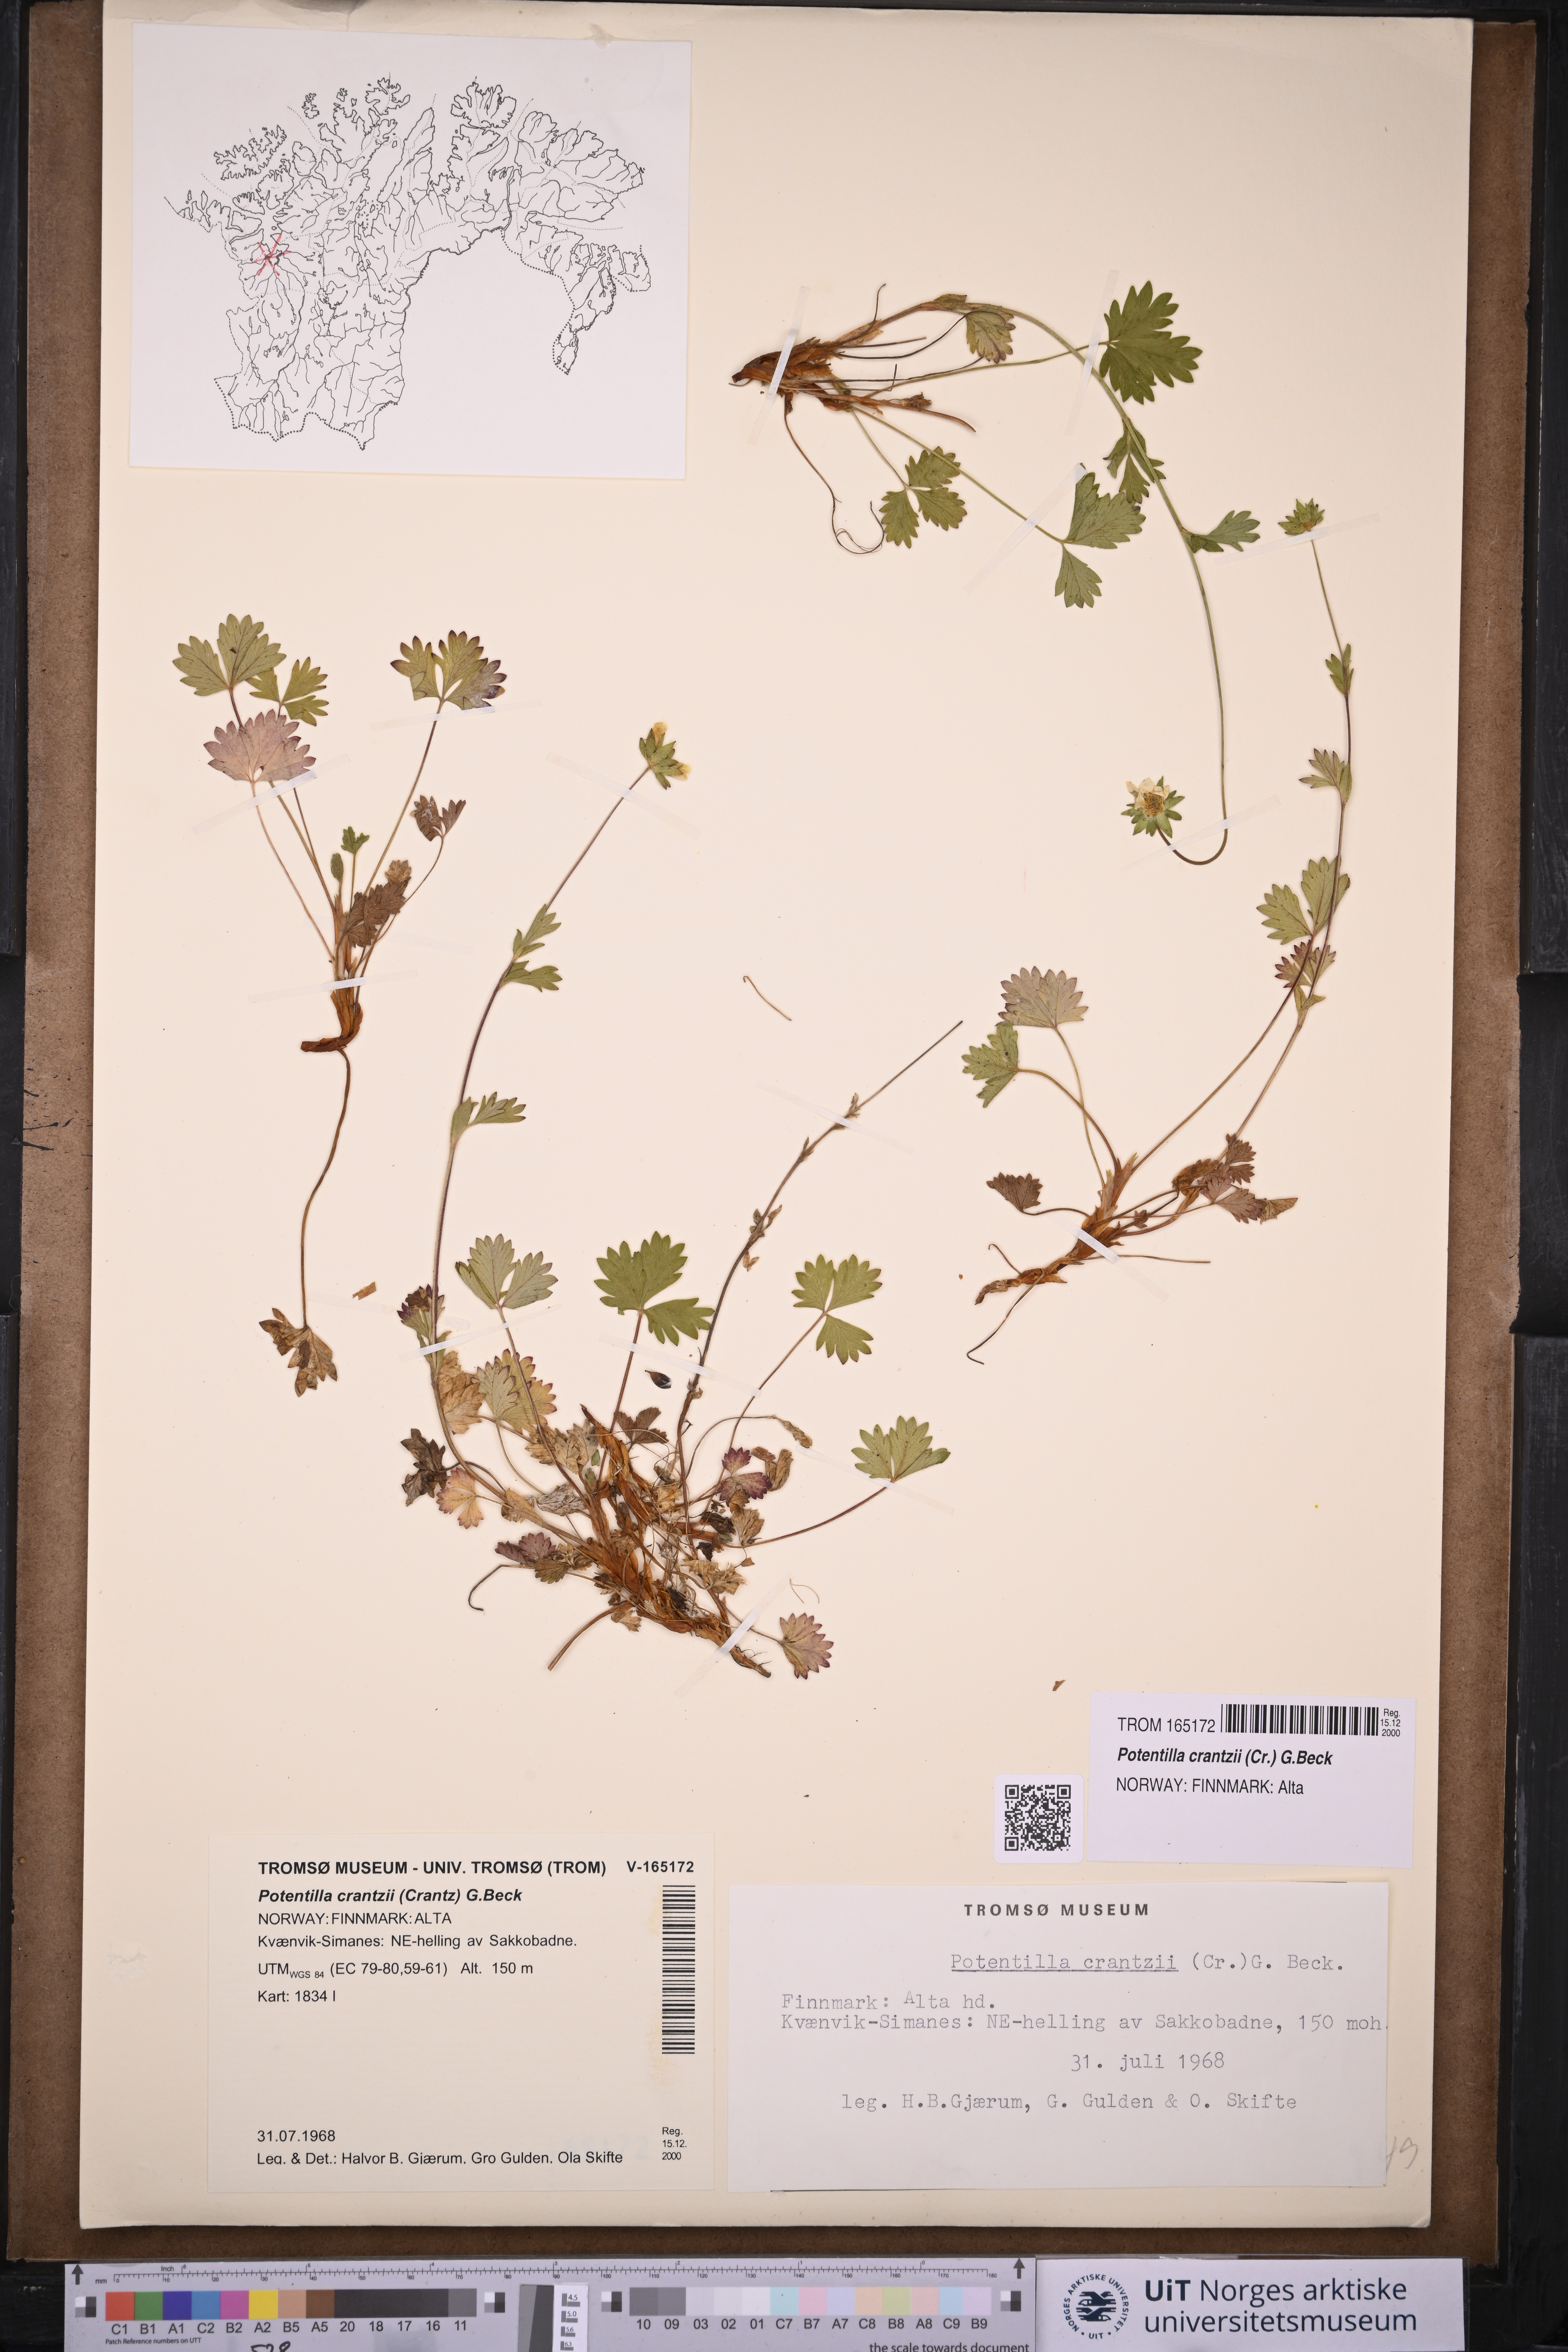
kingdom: Plantae
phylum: Tracheophyta
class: Magnoliopsida
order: Rosales
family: Rosaceae
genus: Potentilla
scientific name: Potentilla crantzii
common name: Alpine cinquefoil
